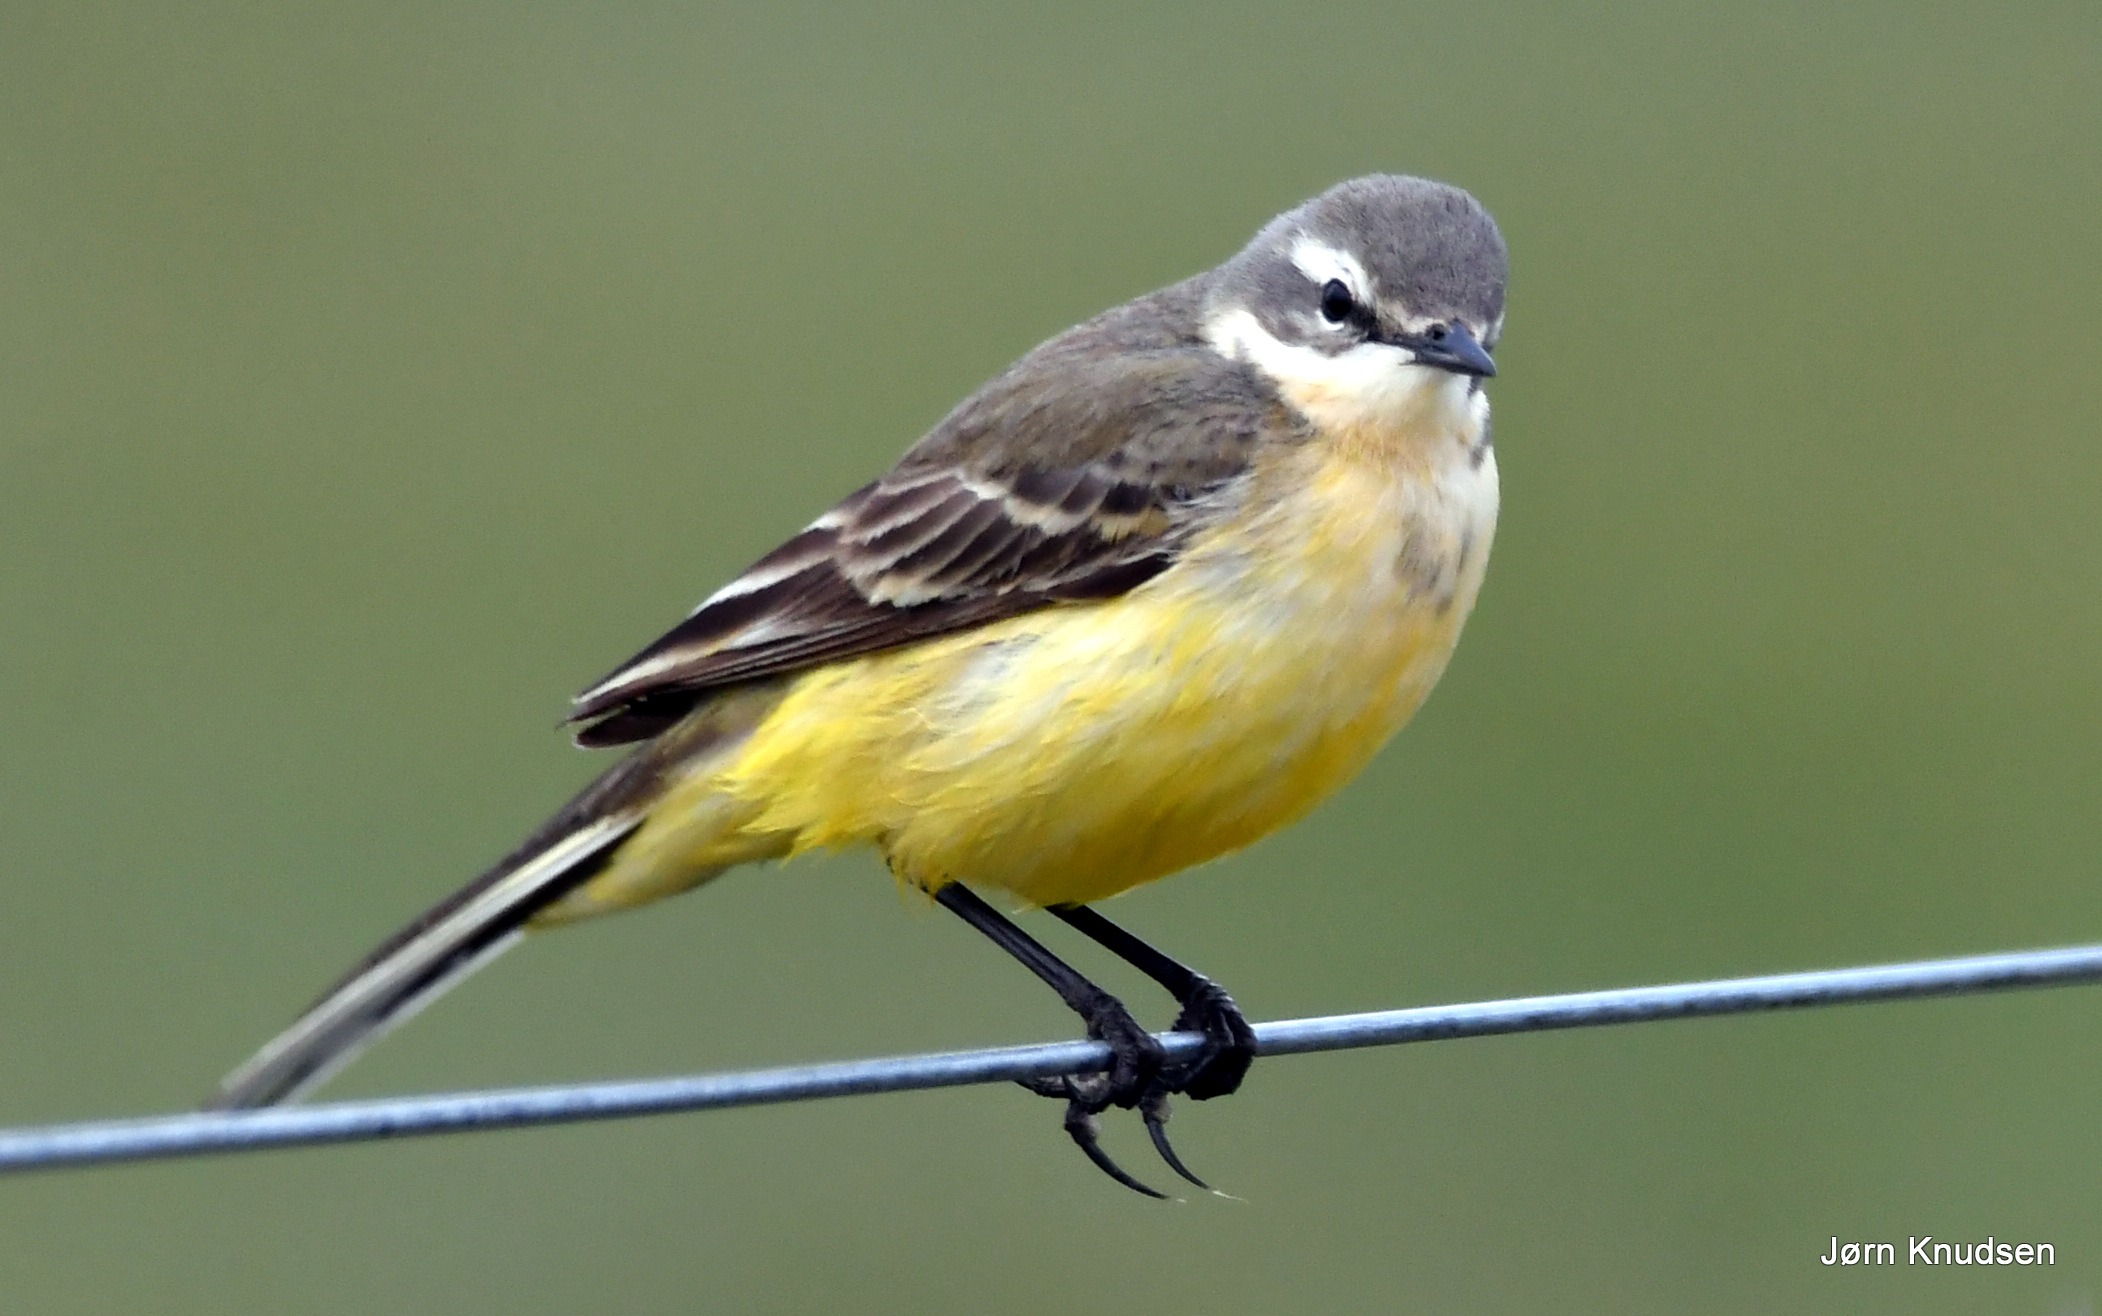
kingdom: Animalia
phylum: Chordata
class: Aves
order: Passeriformes
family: Motacillidae
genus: Motacilla
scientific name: Motacilla flava
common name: Gul vipstjert
